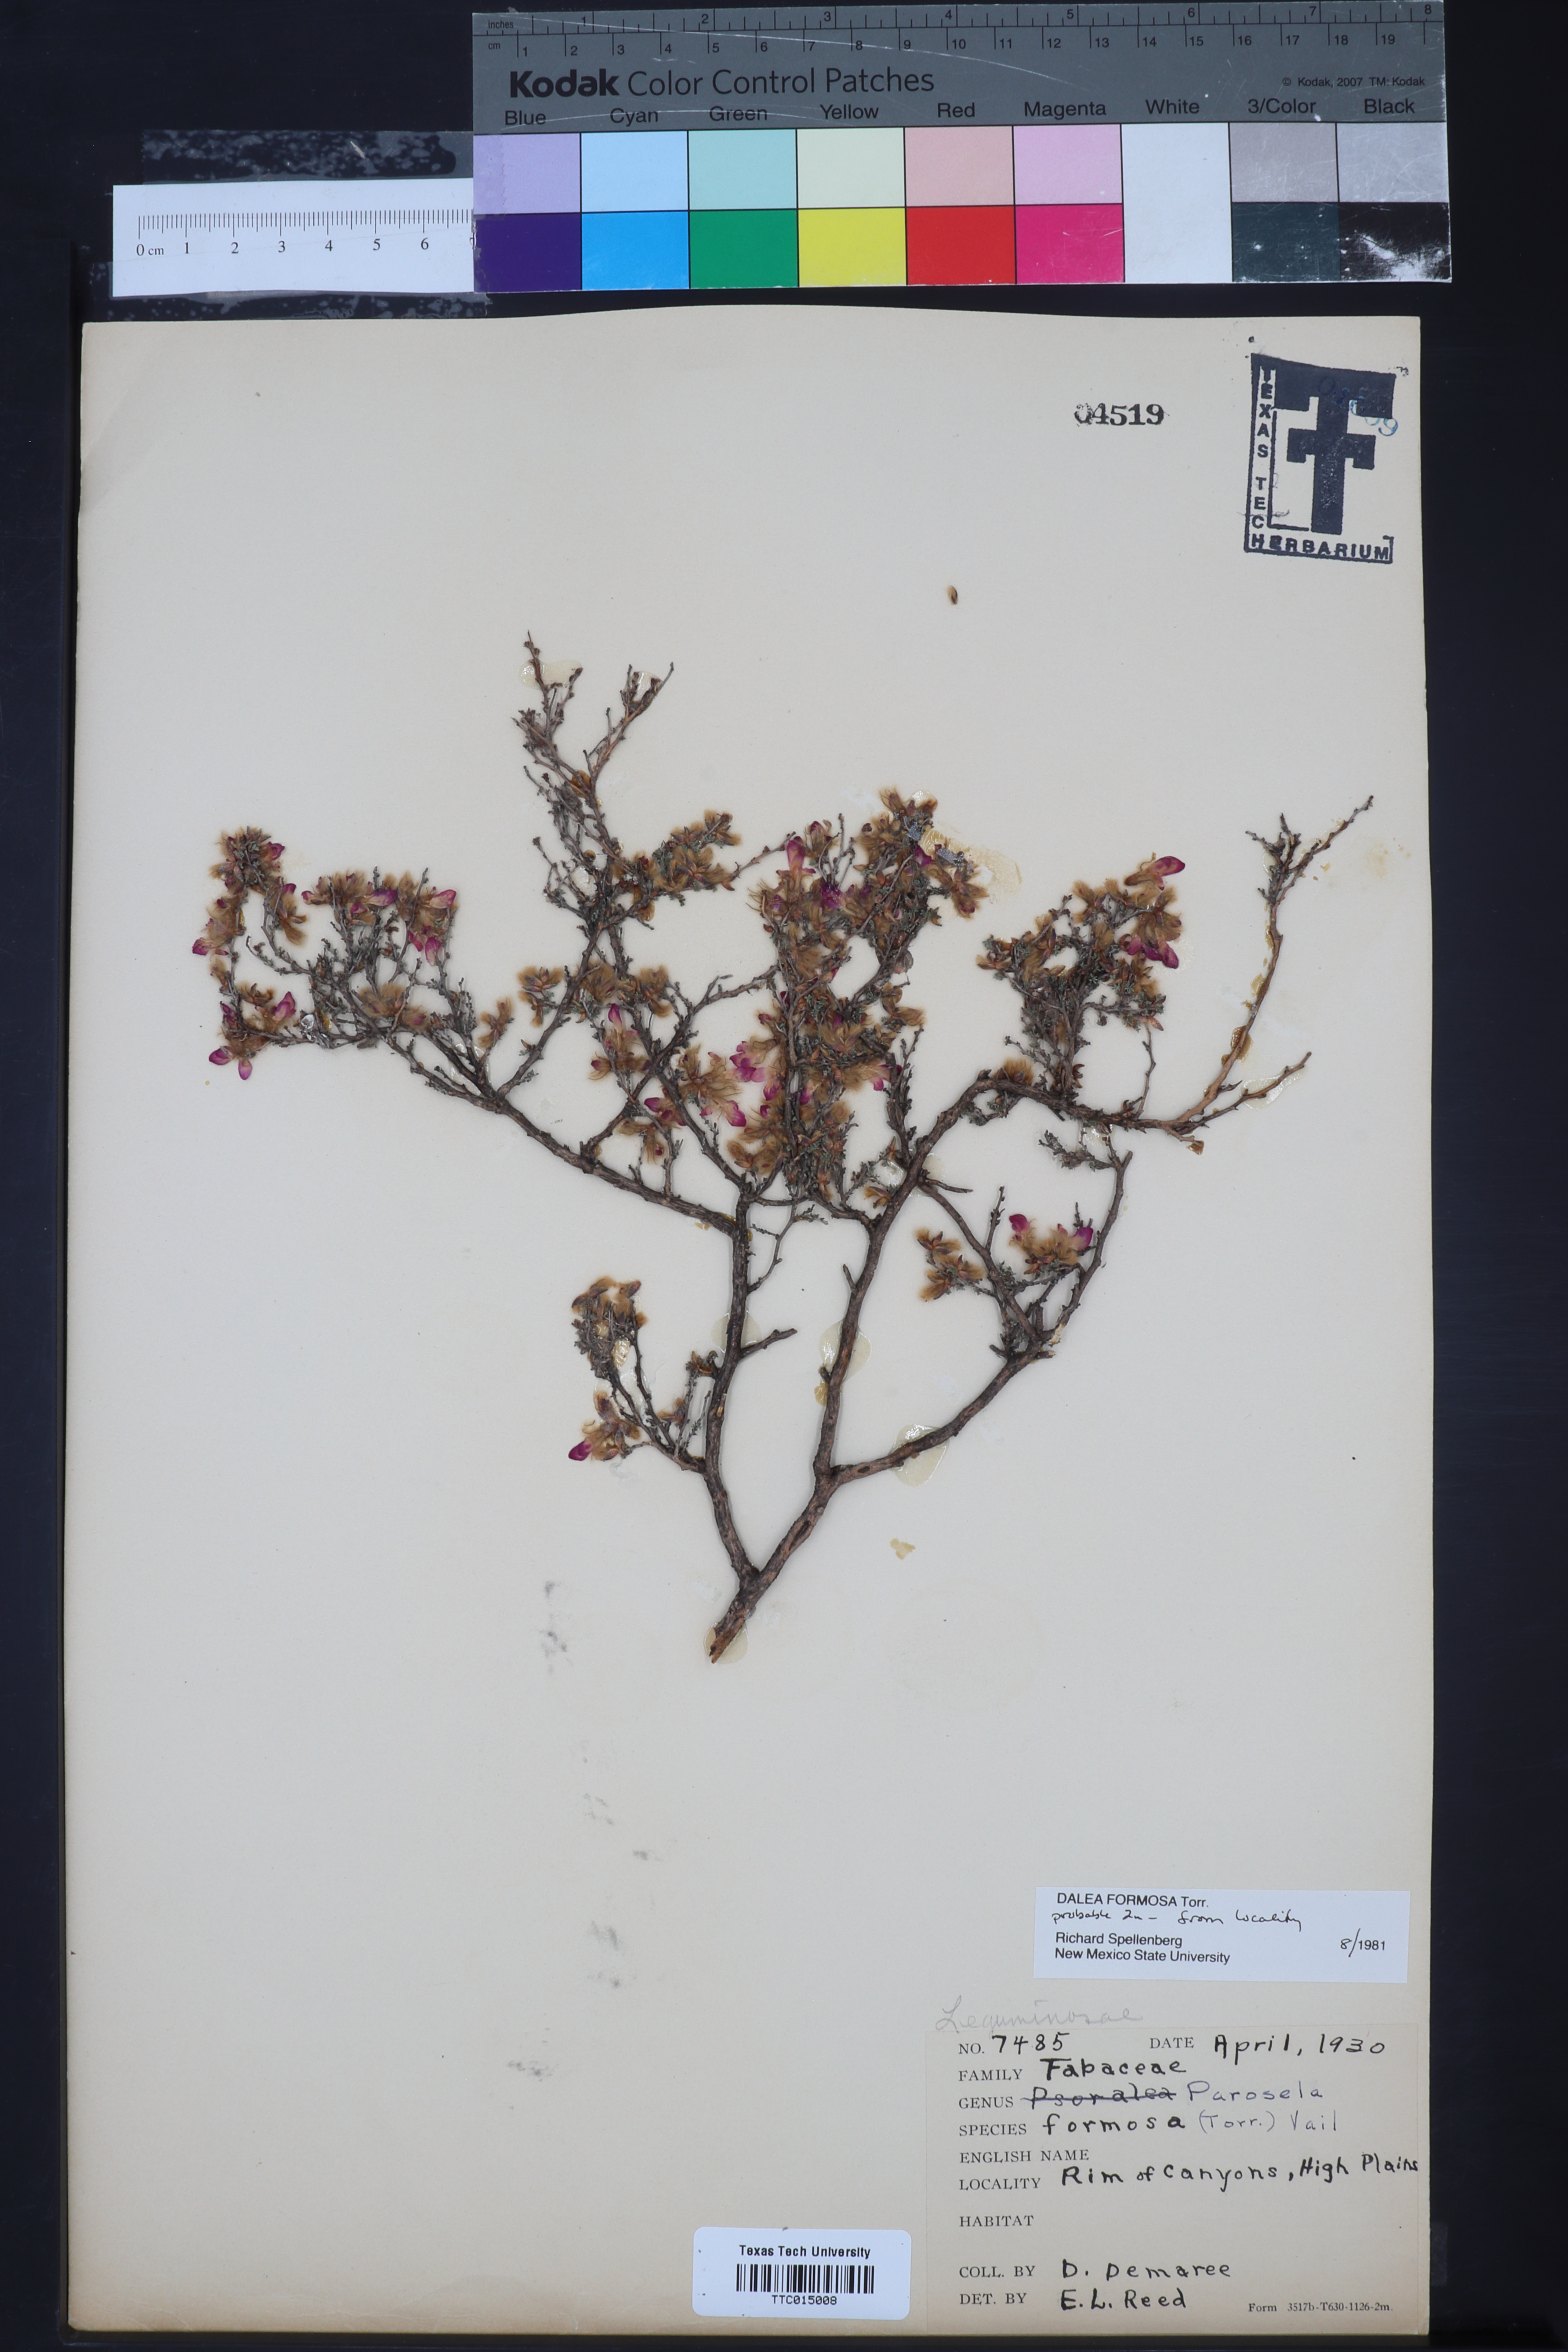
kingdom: Plantae
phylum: Tracheophyta
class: Magnoliopsida
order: Fabales
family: Fabaceae
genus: Dalea
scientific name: Dalea formosa
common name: Feather-plume dalea
